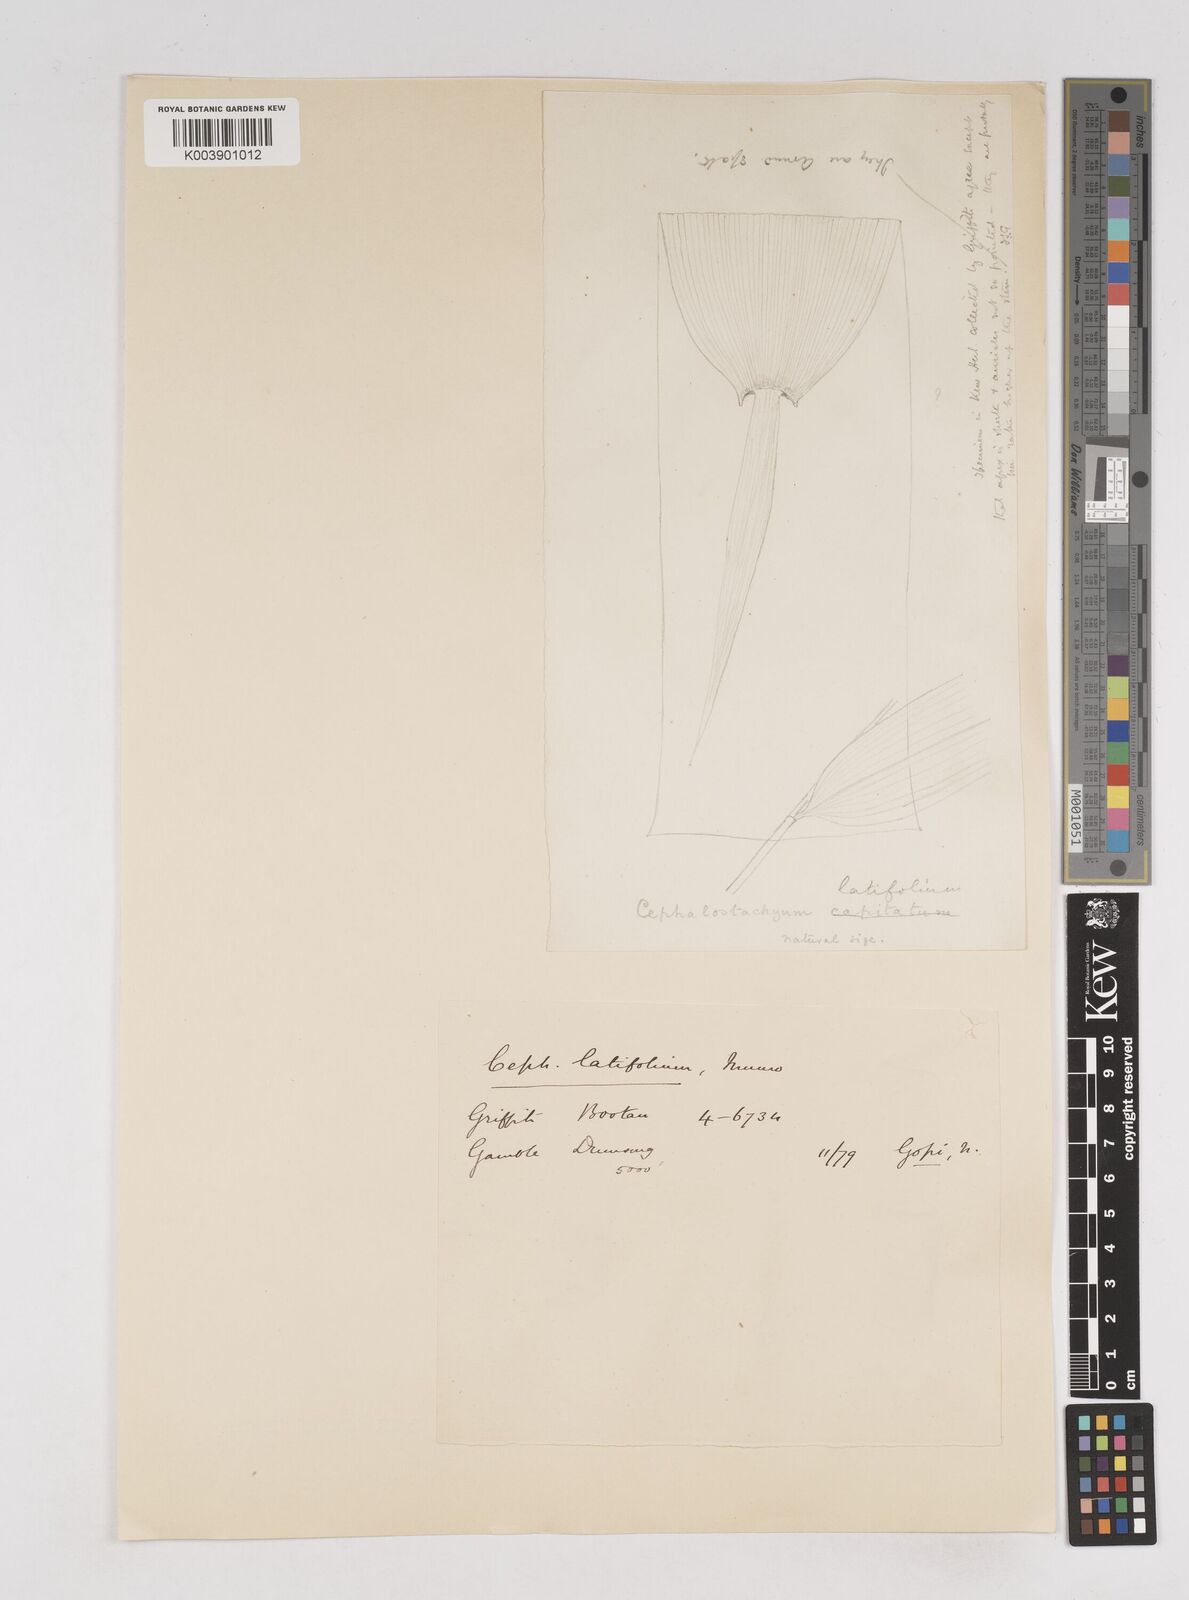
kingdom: Plantae
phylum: Tracheophyta
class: Liliopsida
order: Poales
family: Poaceae
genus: Cephalostachyum
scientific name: Cephalostachyum latifolium
